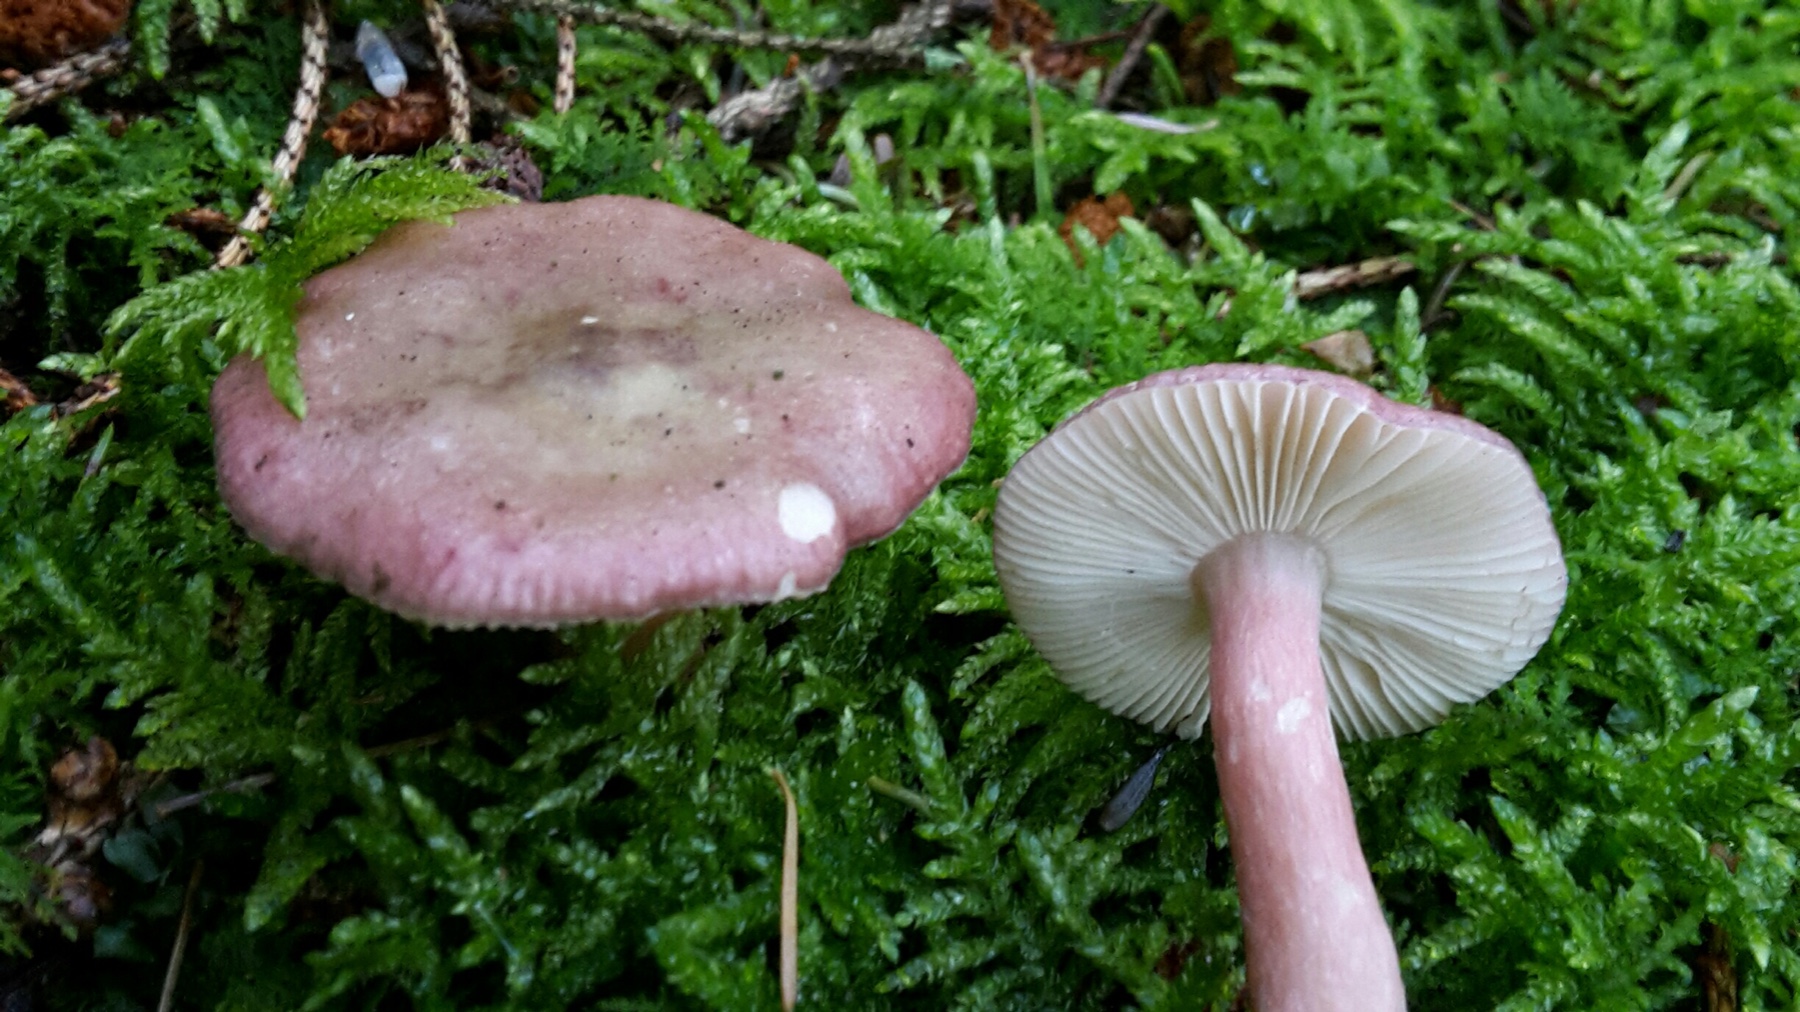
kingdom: Fungi
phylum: Basidiomycota
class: Agaricomycetes
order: Russulales
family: Russulaceae
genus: Russula
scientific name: Russula queletii
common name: Quélets skørhat
